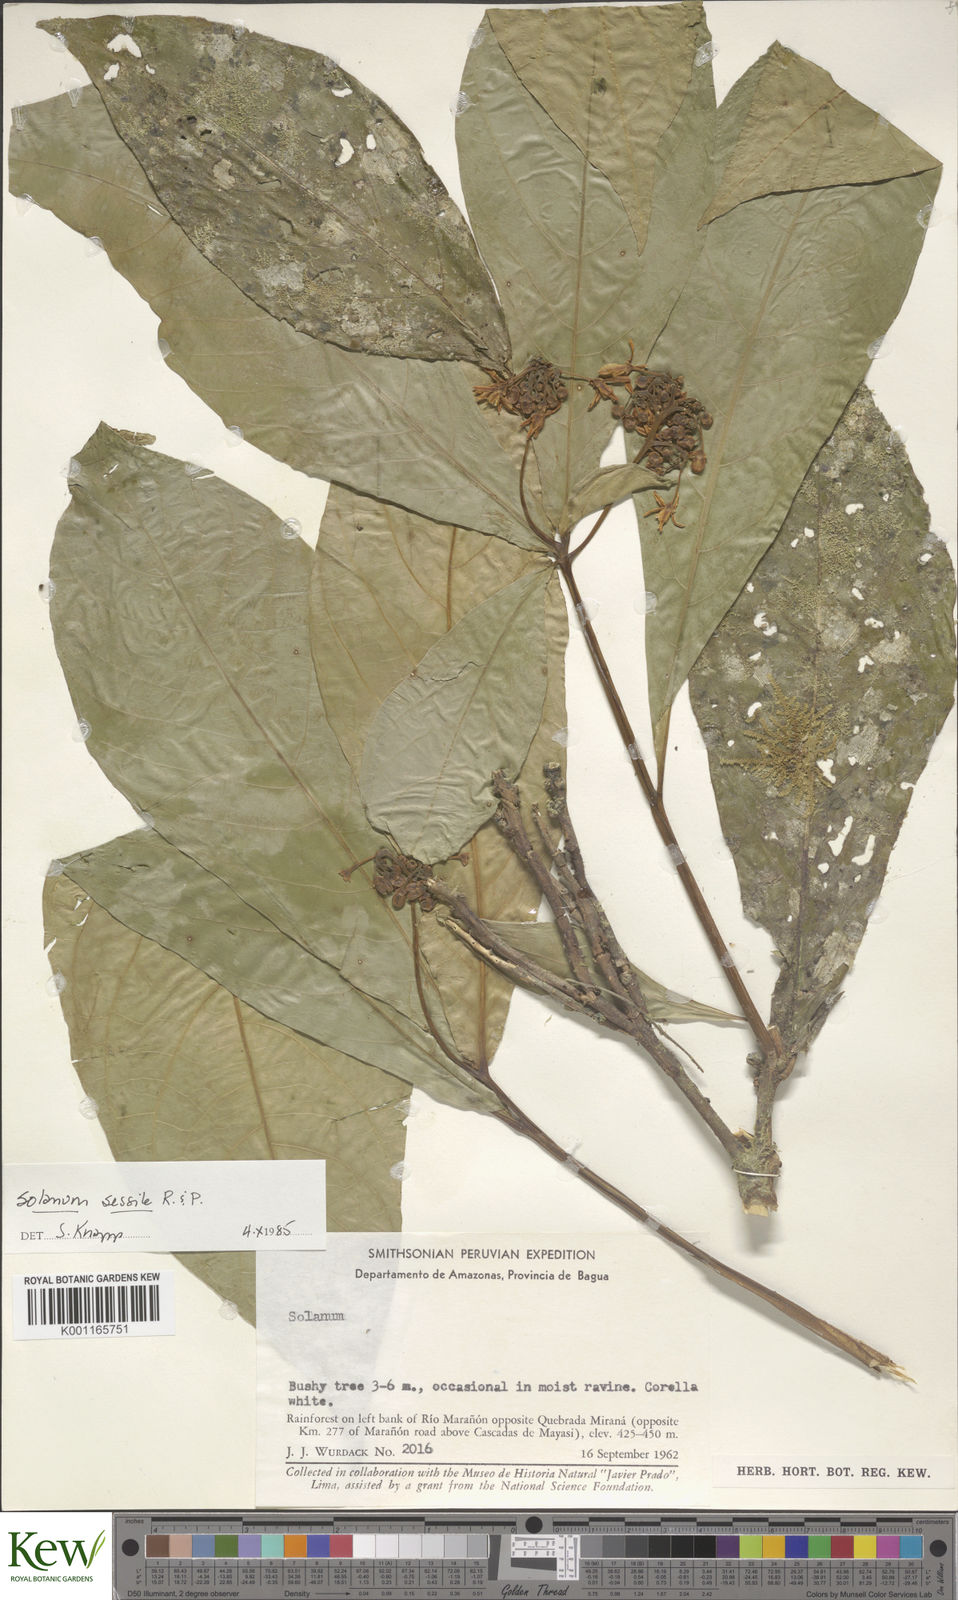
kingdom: Plantae
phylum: Tracheophyta
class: Magnoliopsida
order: Solanales
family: Solanaceae
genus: Solanum
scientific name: Solanum sessile
